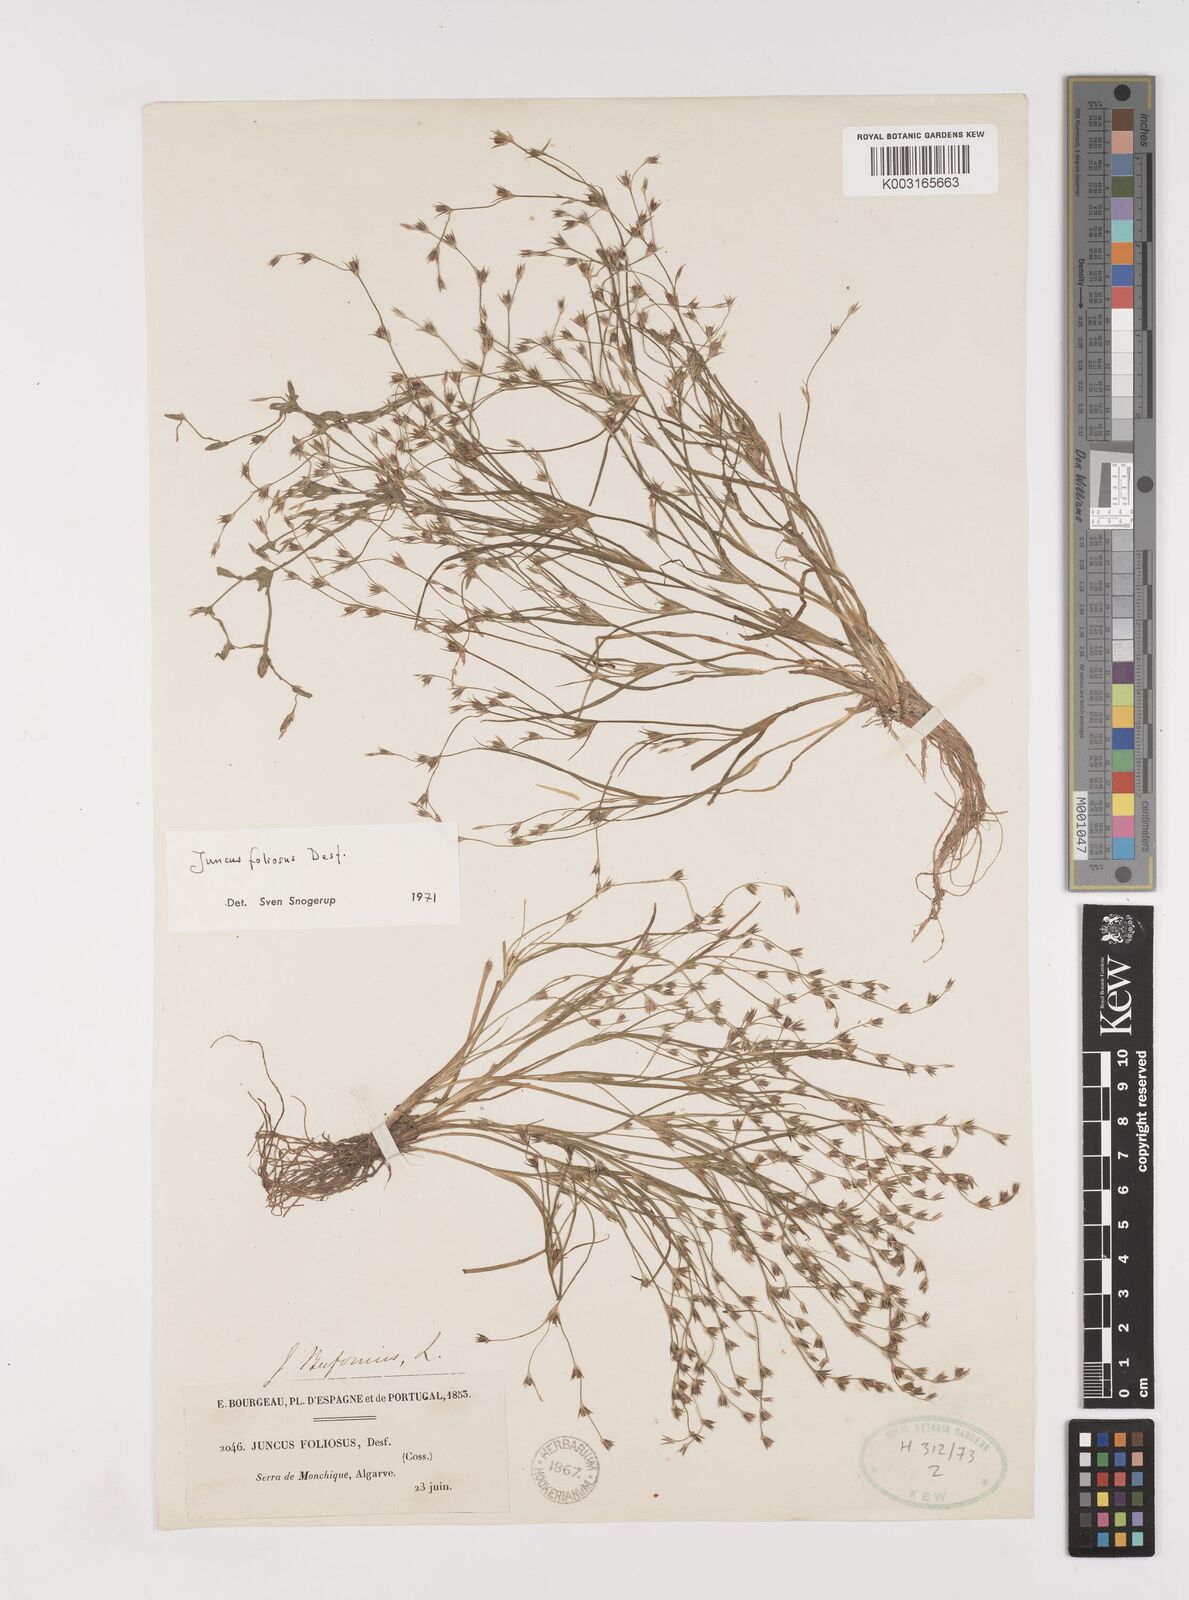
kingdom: Plantae
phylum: Tracheophyta
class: Liliopsida
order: Poales
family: Juncaceae
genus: Juncus
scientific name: Juncus foliosus
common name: Leafy rush
